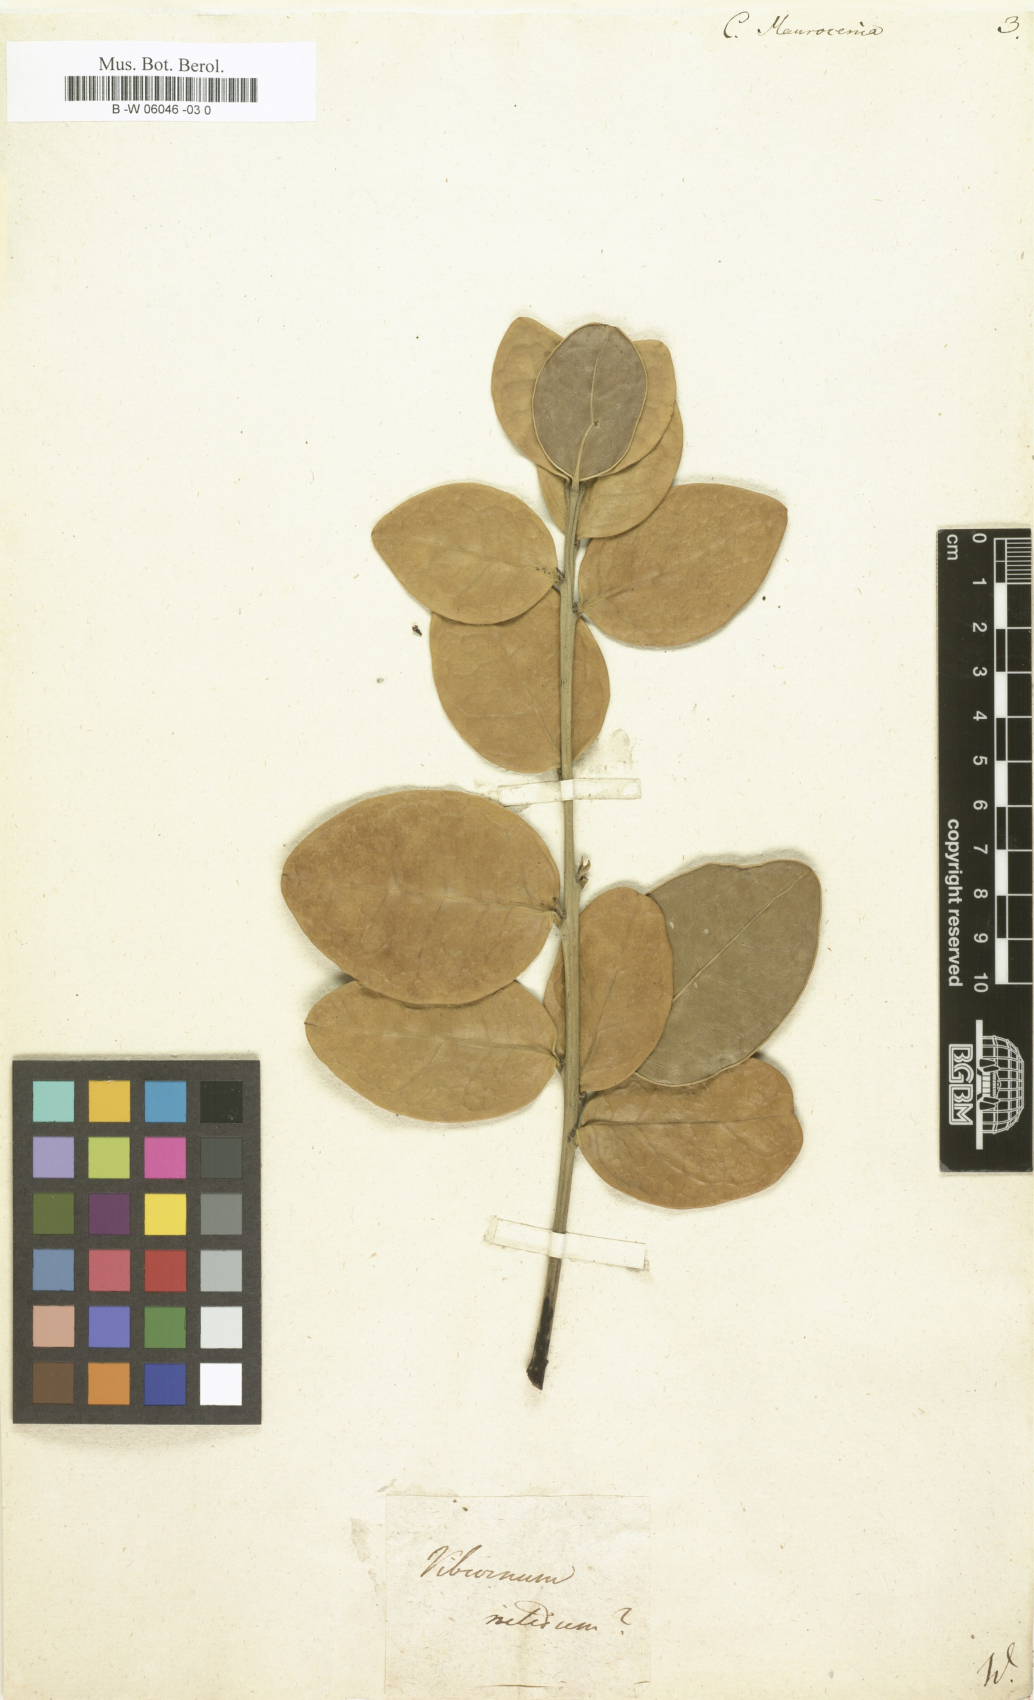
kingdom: Plantae
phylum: Tracheophyta
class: Magnoliopsida
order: Celastrales
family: Celastraceae
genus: Maurocenia
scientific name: Maurocenia frangula
